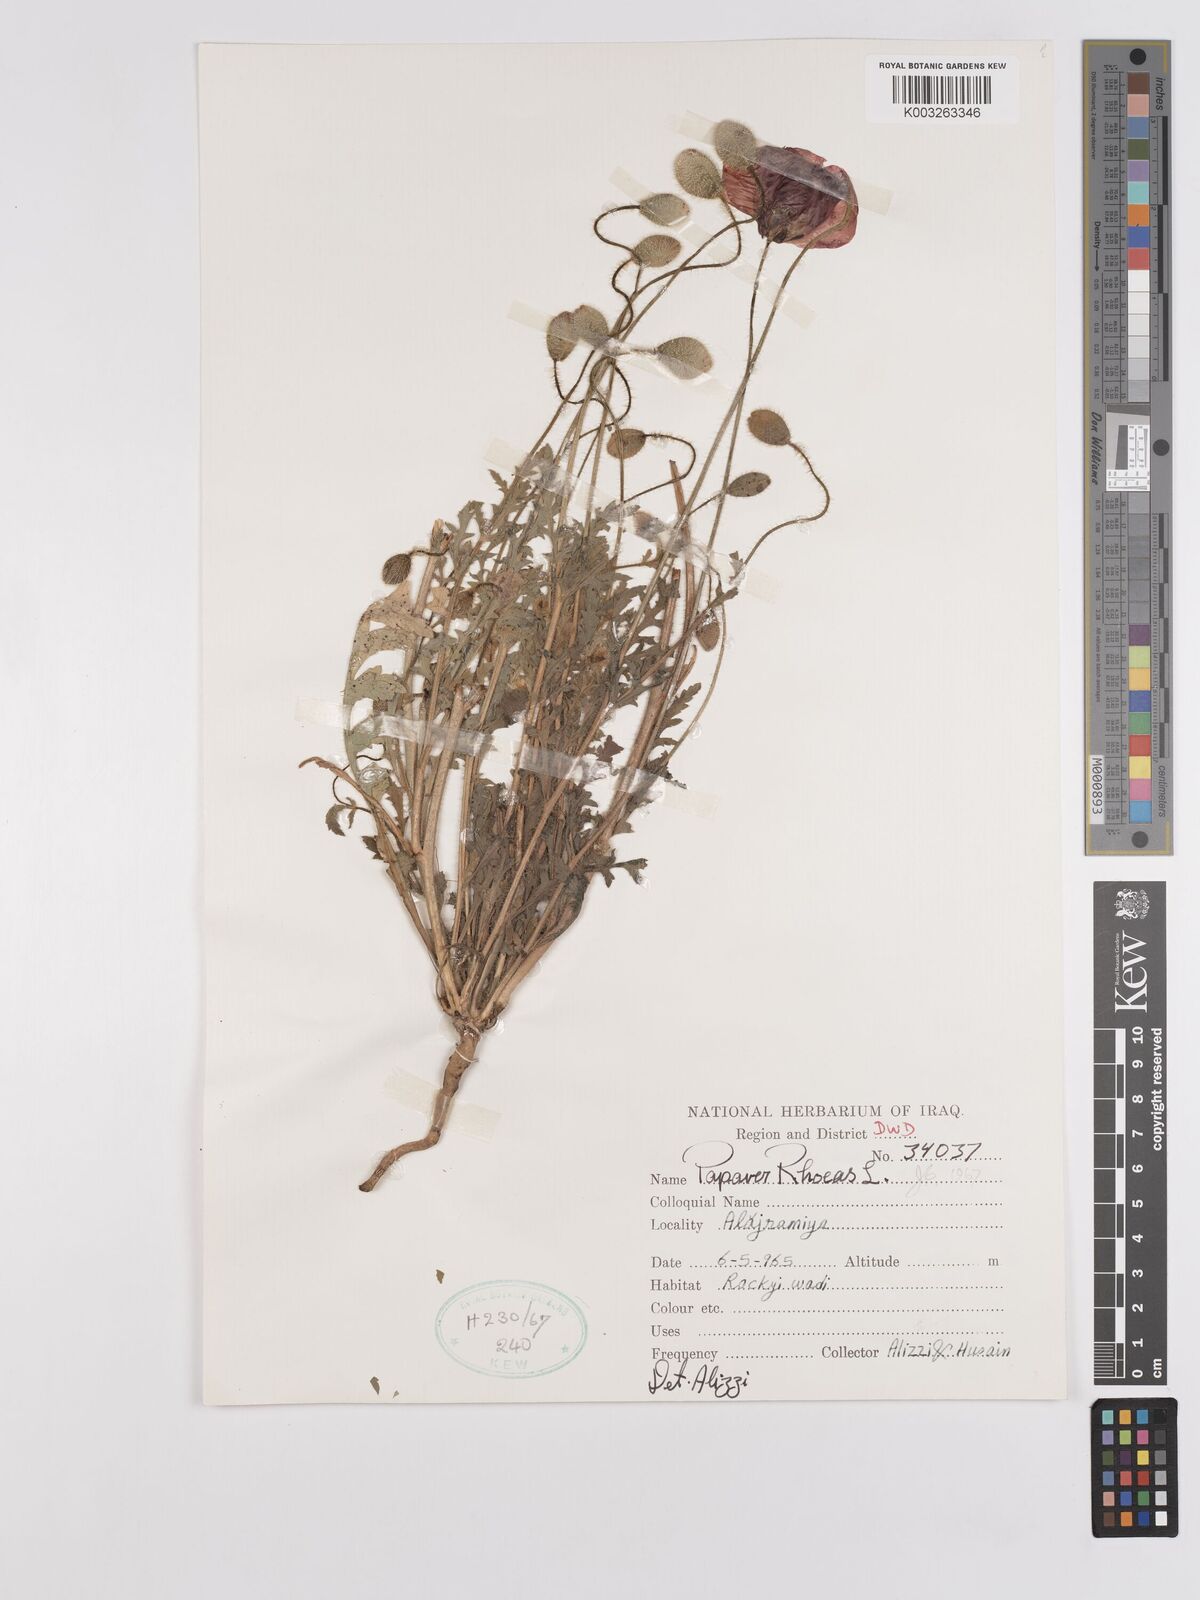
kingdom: Plantae
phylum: Tracheophyta
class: Magnoliopsida
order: Ranunculales
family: Papaveraceae
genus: Papaver
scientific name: Papaver rhoeas
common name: Corn poppy
